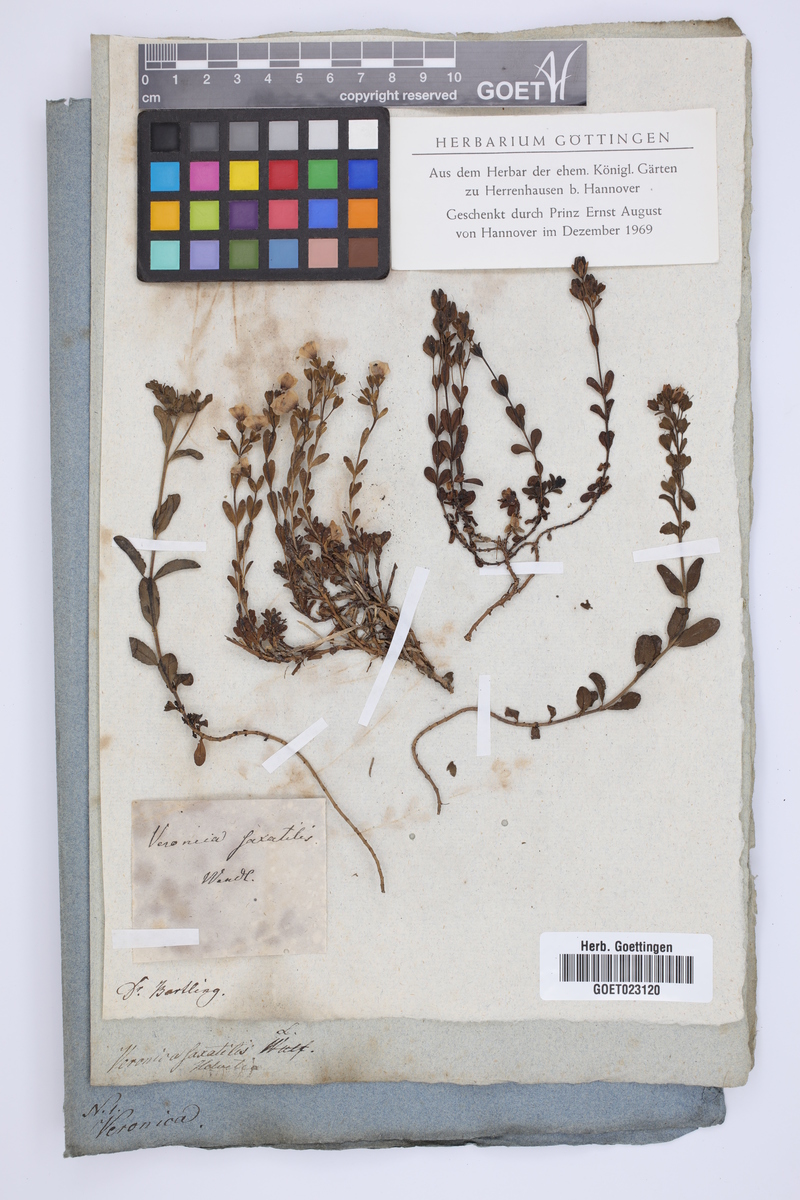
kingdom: Plantae
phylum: Tracheophyta
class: Magnoliopsida
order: Lamiales
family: Plantaginaceae
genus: Veronica
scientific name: Veronica fruticans
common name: Rock speedwell
